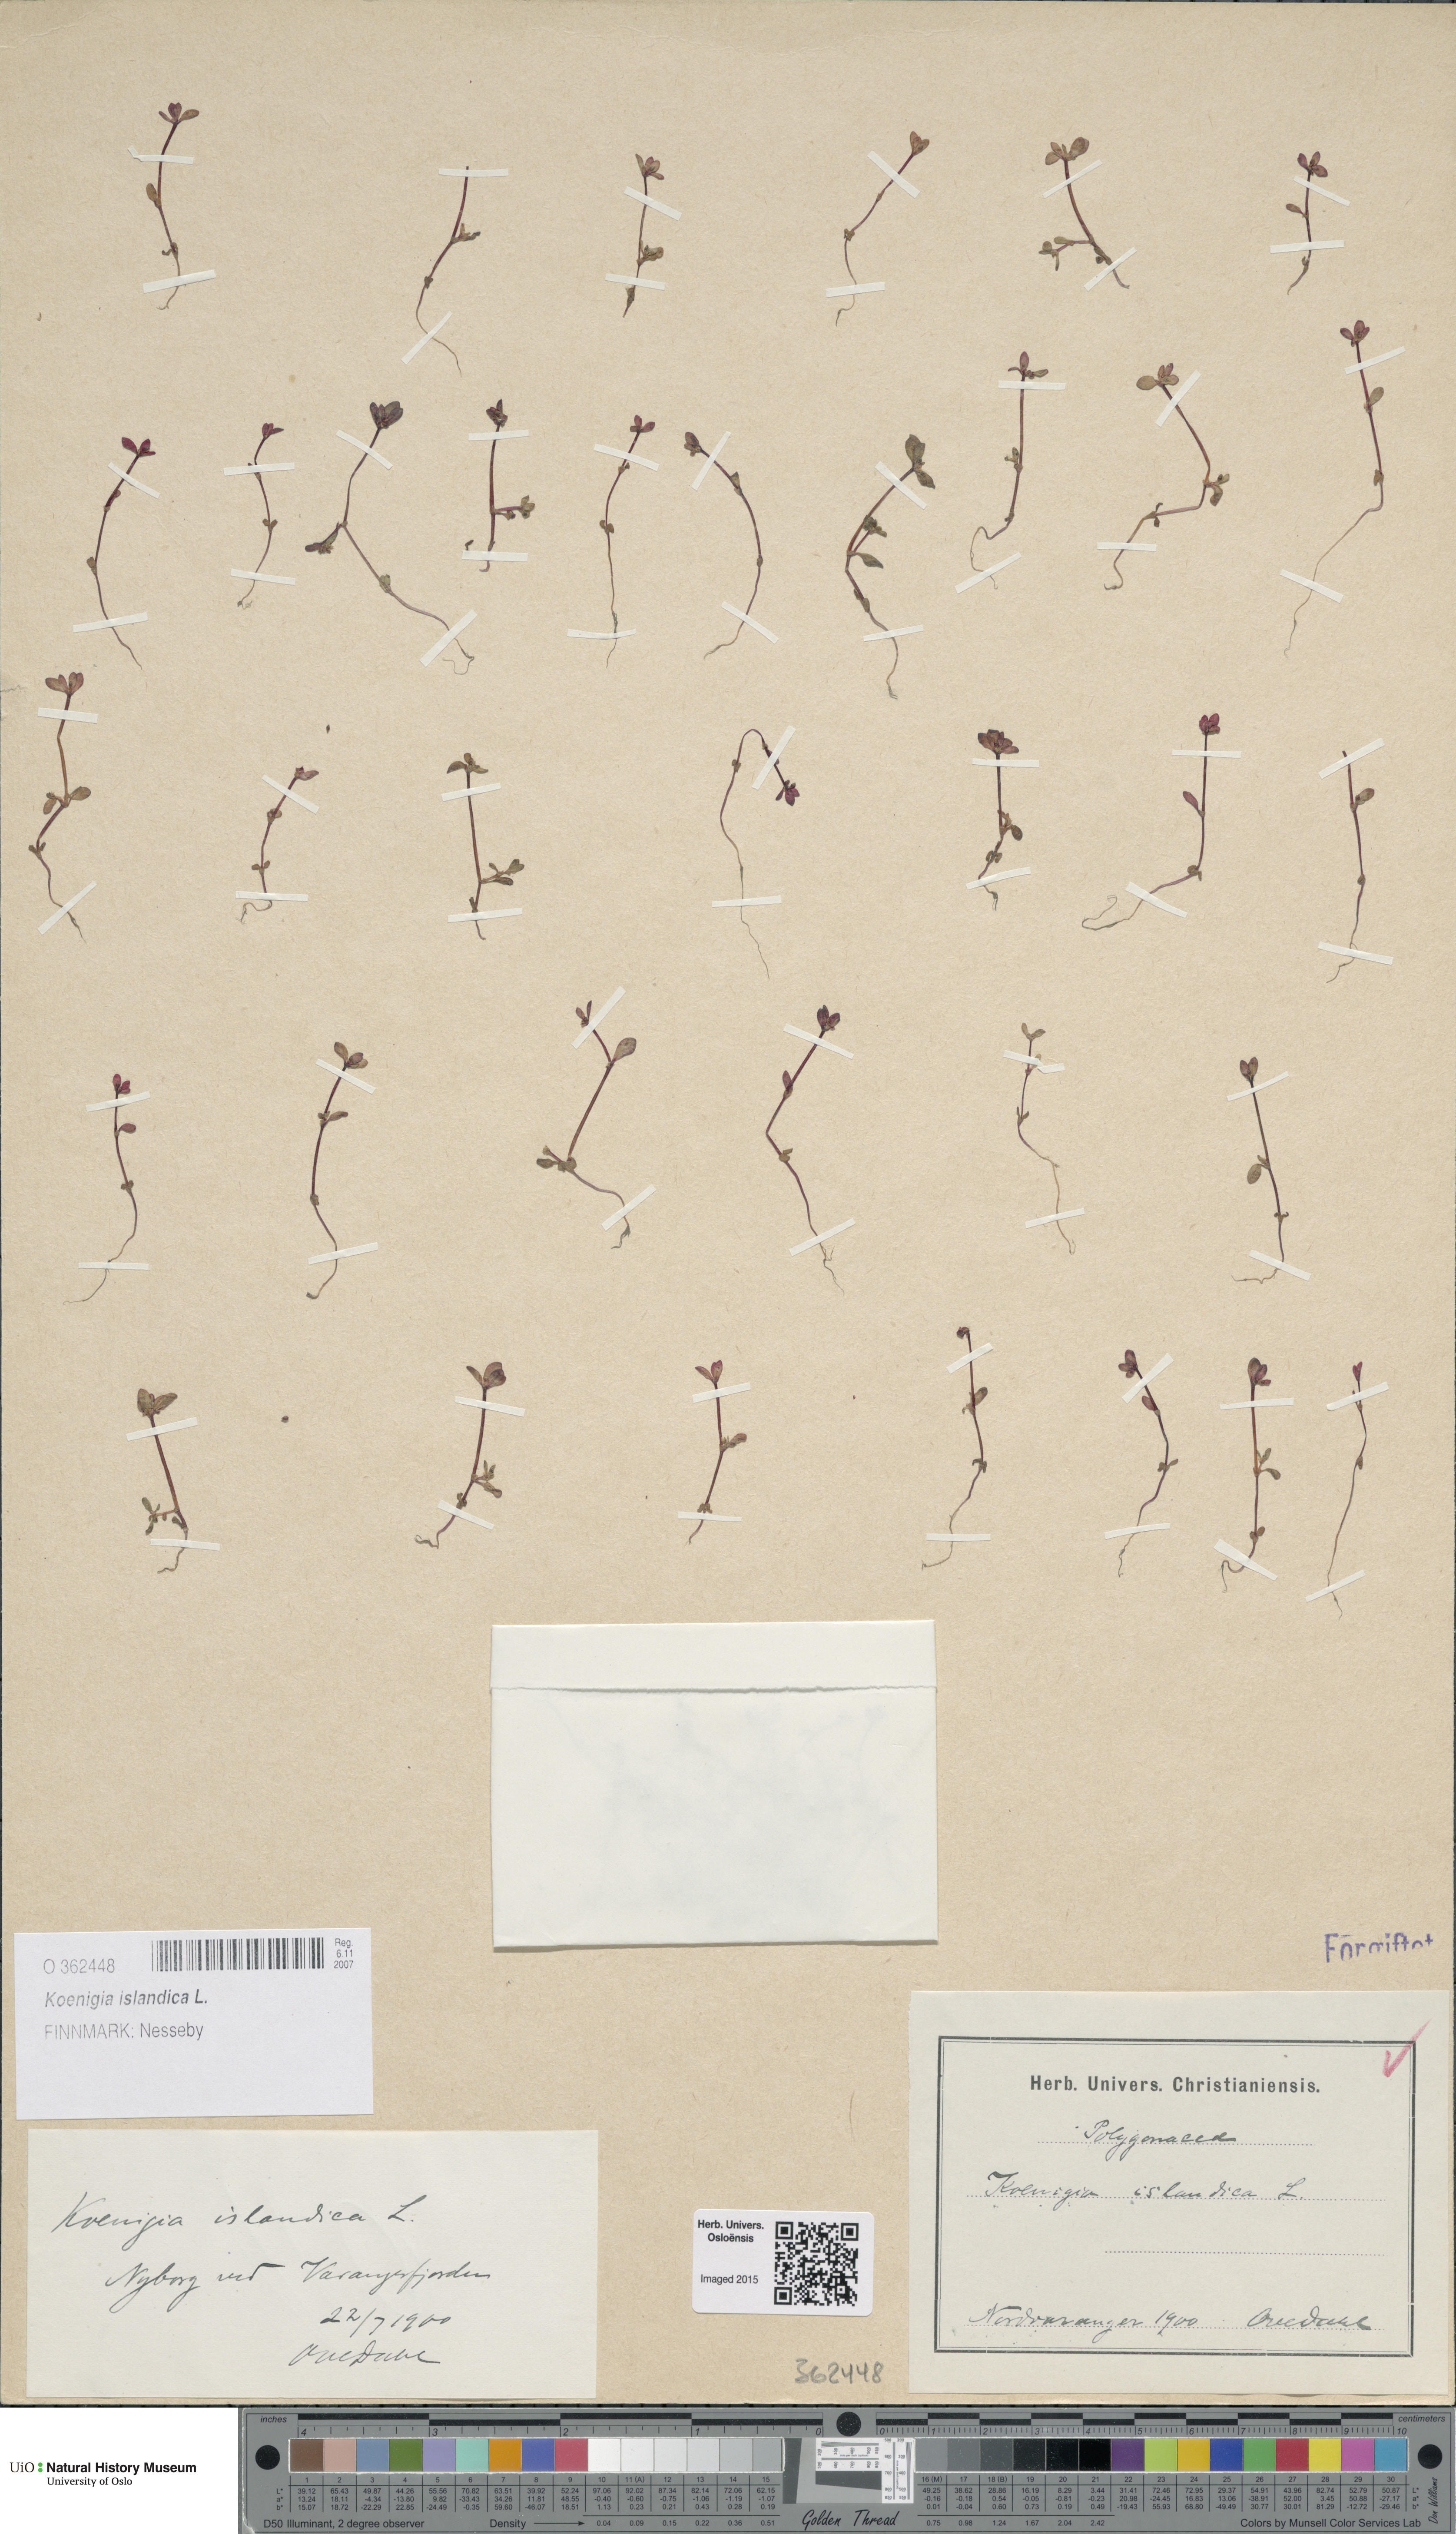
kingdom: Plantae
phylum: Tracheophyta
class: Magnoliopsida
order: Caryophyllales
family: Polygonaceae
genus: Koenigia
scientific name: Koenigia islandica
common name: Iceland-purslane
